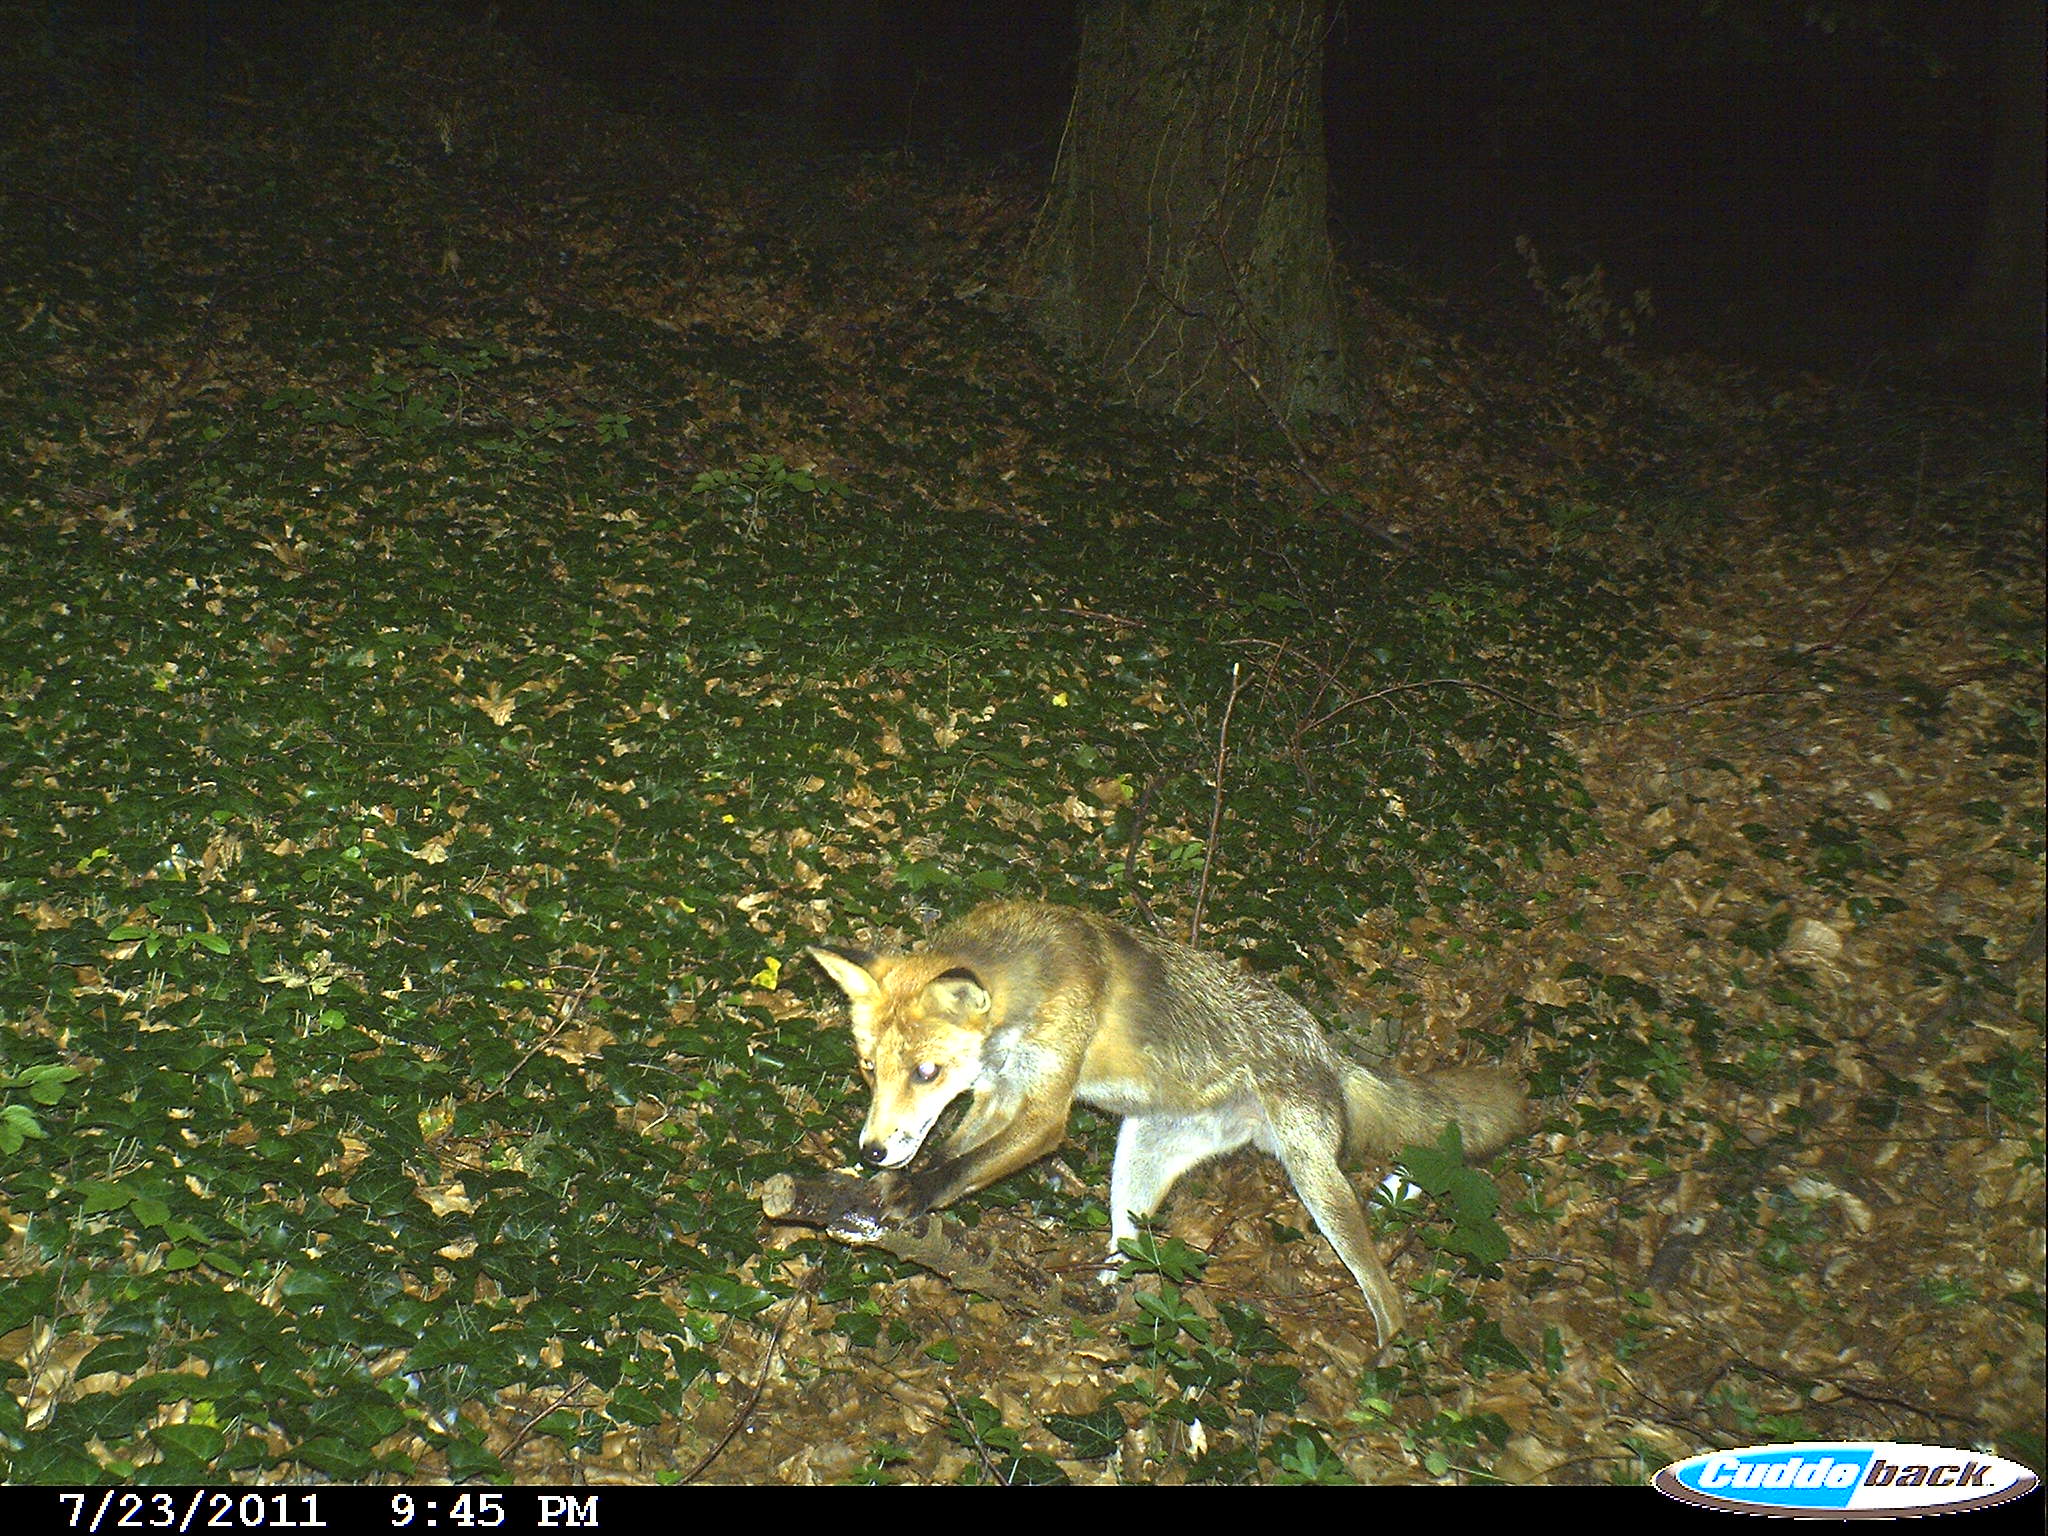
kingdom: Animalia
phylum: Chordata
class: Mammalia
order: Carnivora
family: Canidae
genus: Vulpes
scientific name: Vulpes vulpes
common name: Red fox
